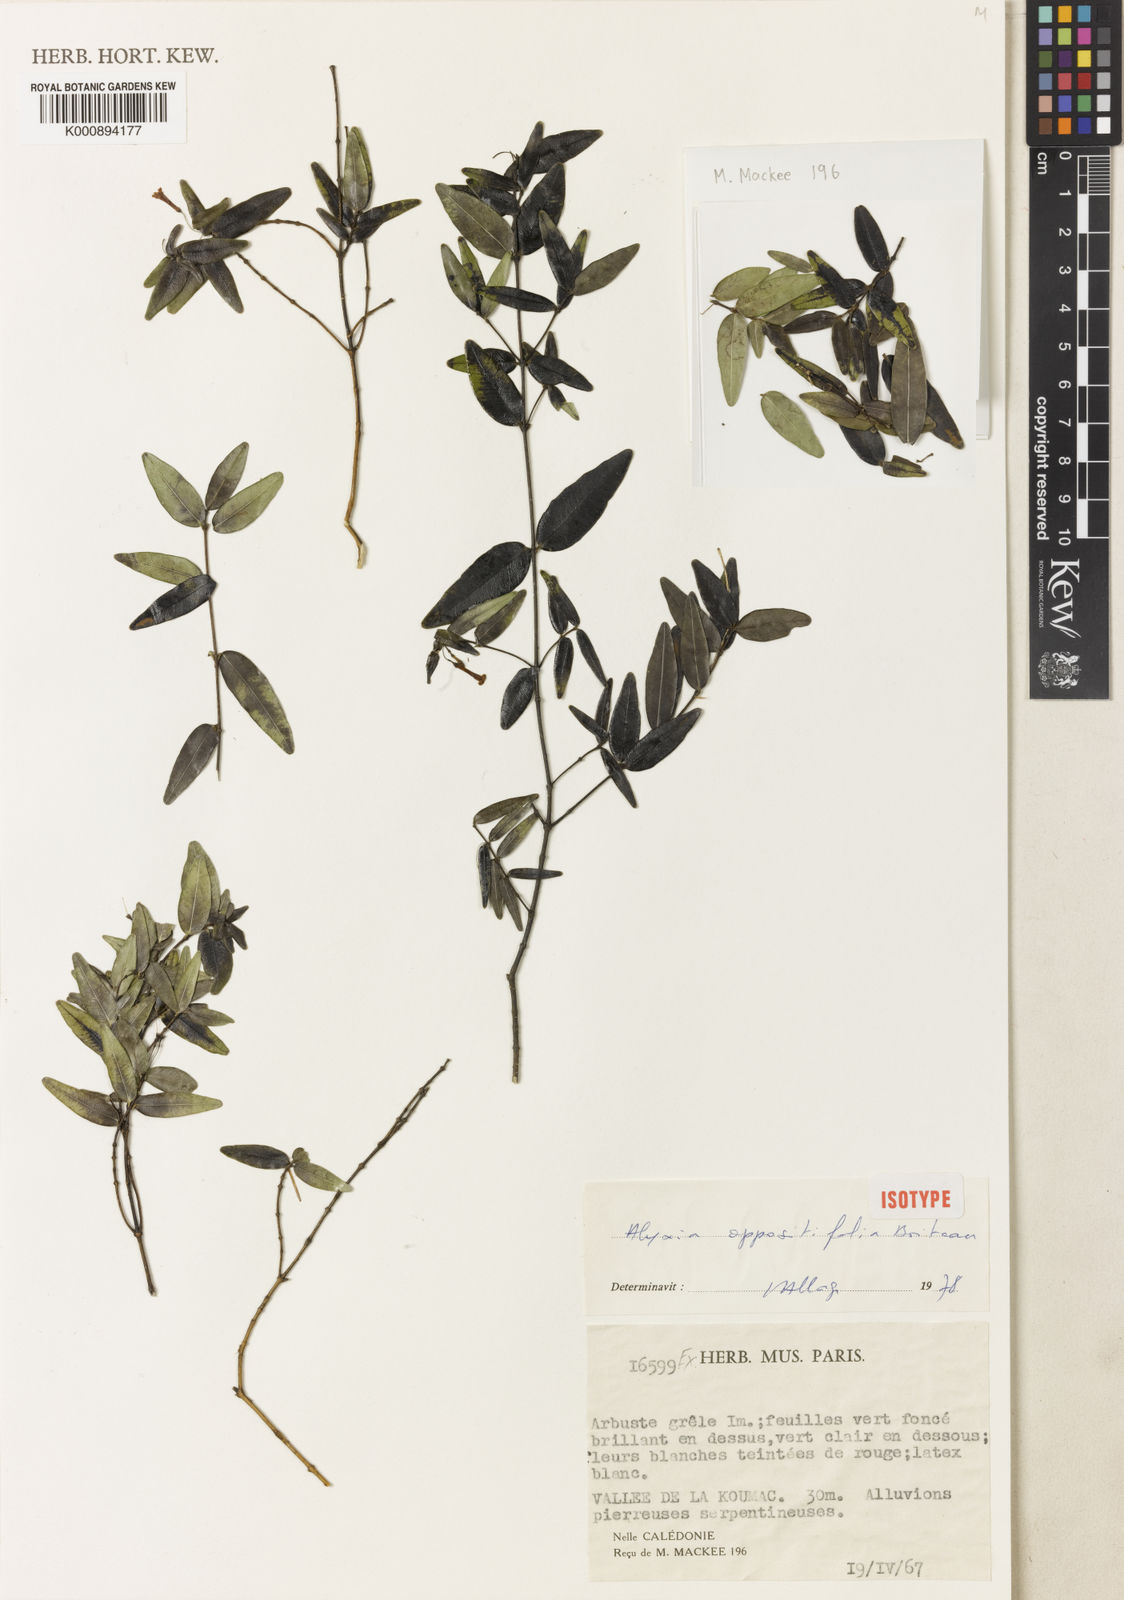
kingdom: Plantae
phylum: Tracheophyta
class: Magnoliopsida
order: Gentianales
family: Apocynaceae
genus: Alyxia
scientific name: Alyxia oppositifolia
